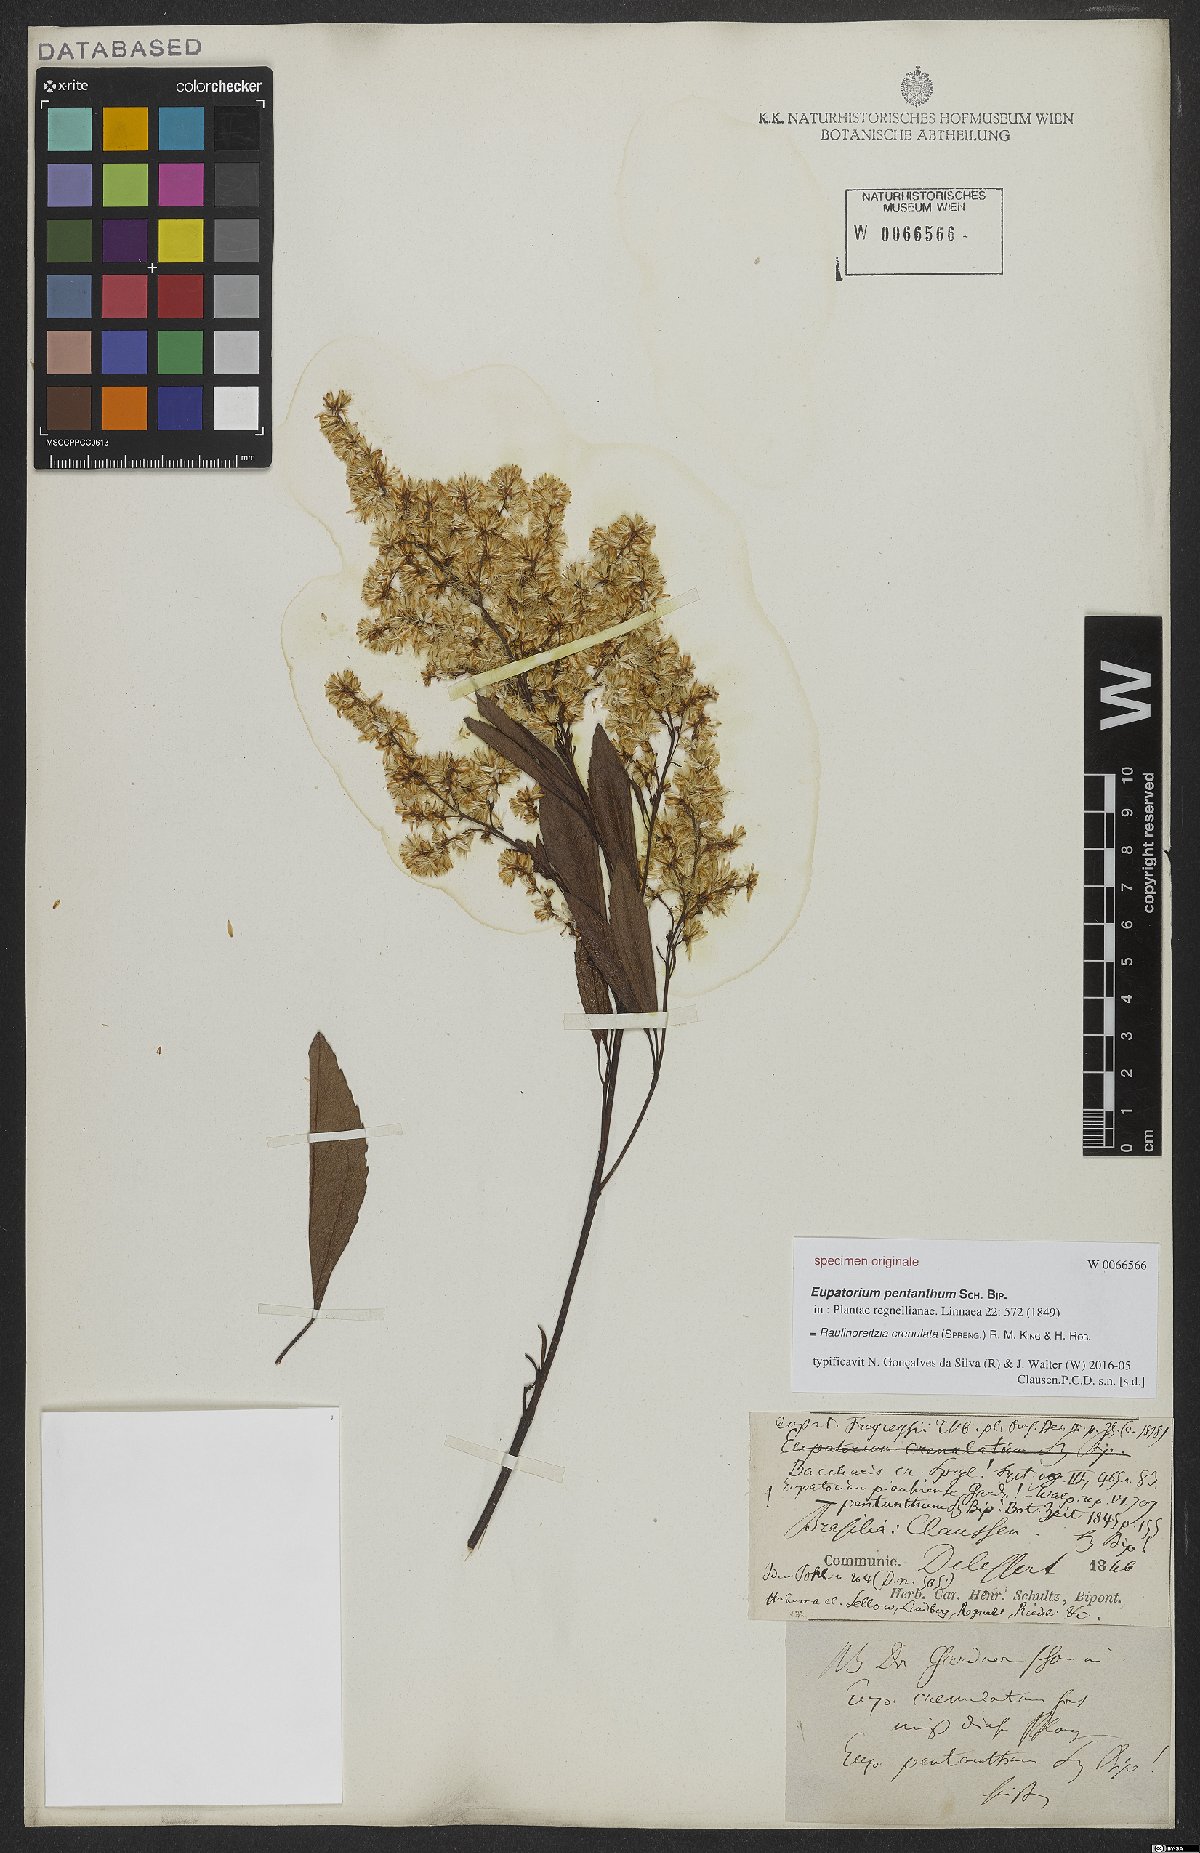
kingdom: Plantae
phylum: Tracheophyta
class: Magnoliopsida
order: Asterales
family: Asteraceae
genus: Raulinoreitzia
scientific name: Raulinoreitzia crenulata
